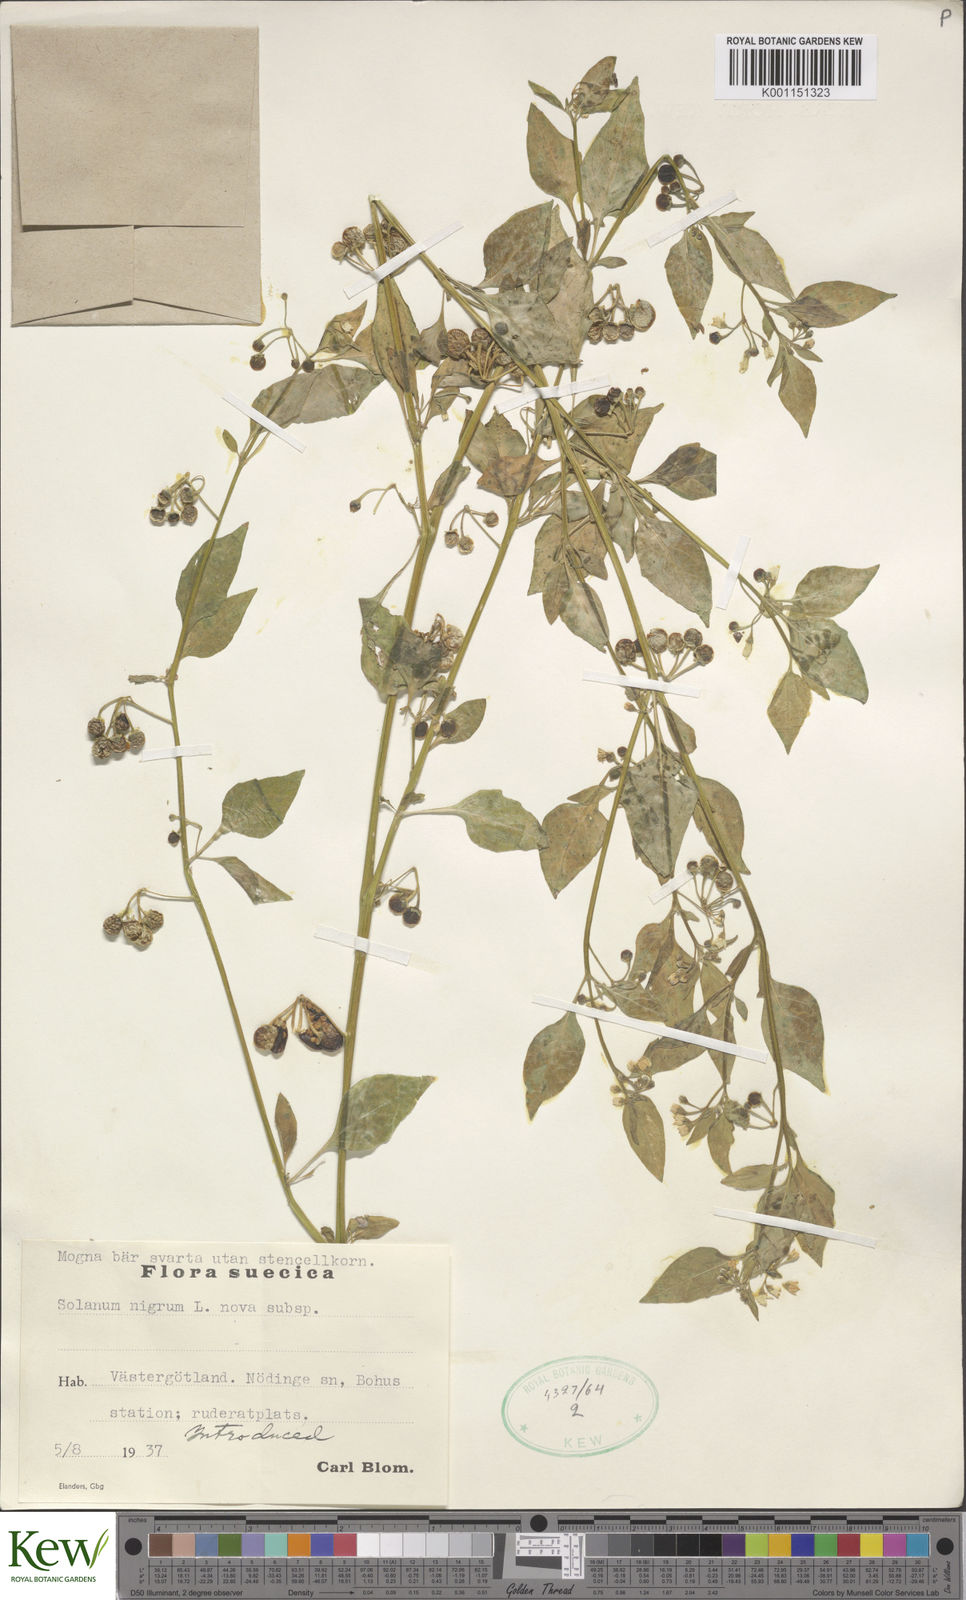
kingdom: Plantae
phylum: Tracheophyta
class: Magnoliopsida
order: Solanales
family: Solanaceae
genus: Solanum
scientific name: Solanum nigrum
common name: Black nightshade
